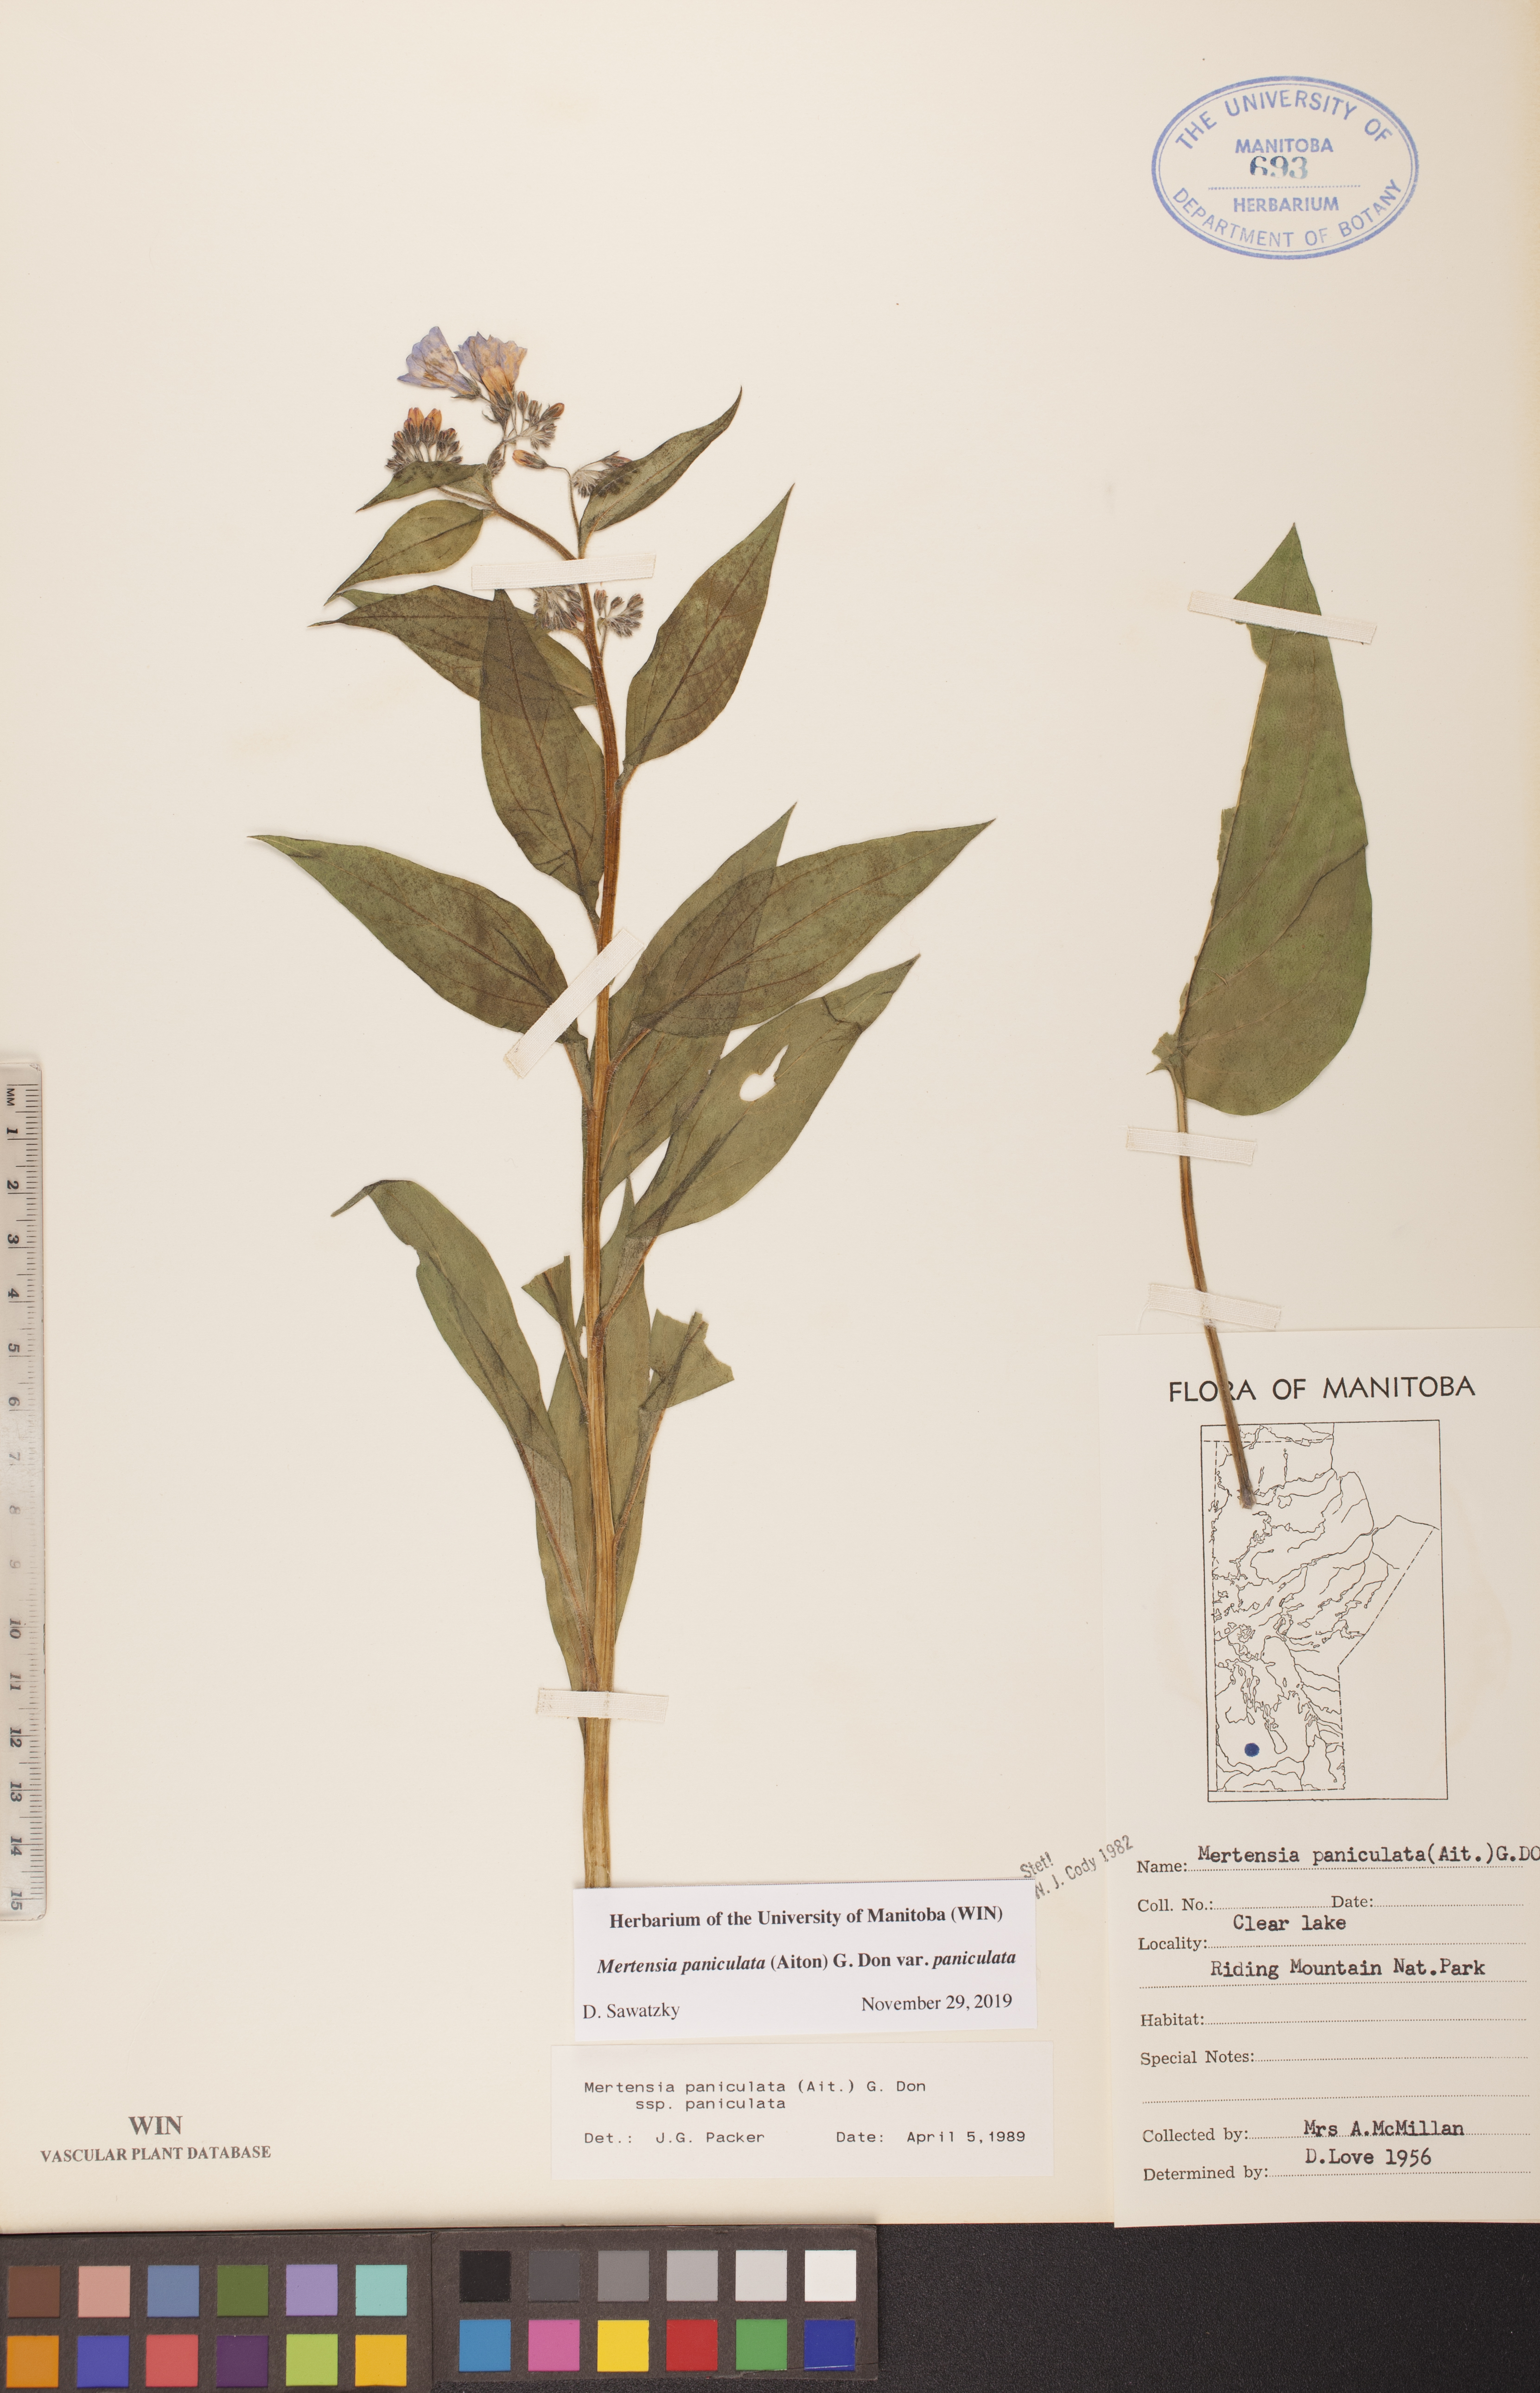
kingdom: Plantae
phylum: Tracheophyta
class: Magnoliopsida
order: Boraginales
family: Boraginaceae
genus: Mertensia
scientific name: Mertensia paniculata
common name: Panicled bluebells
